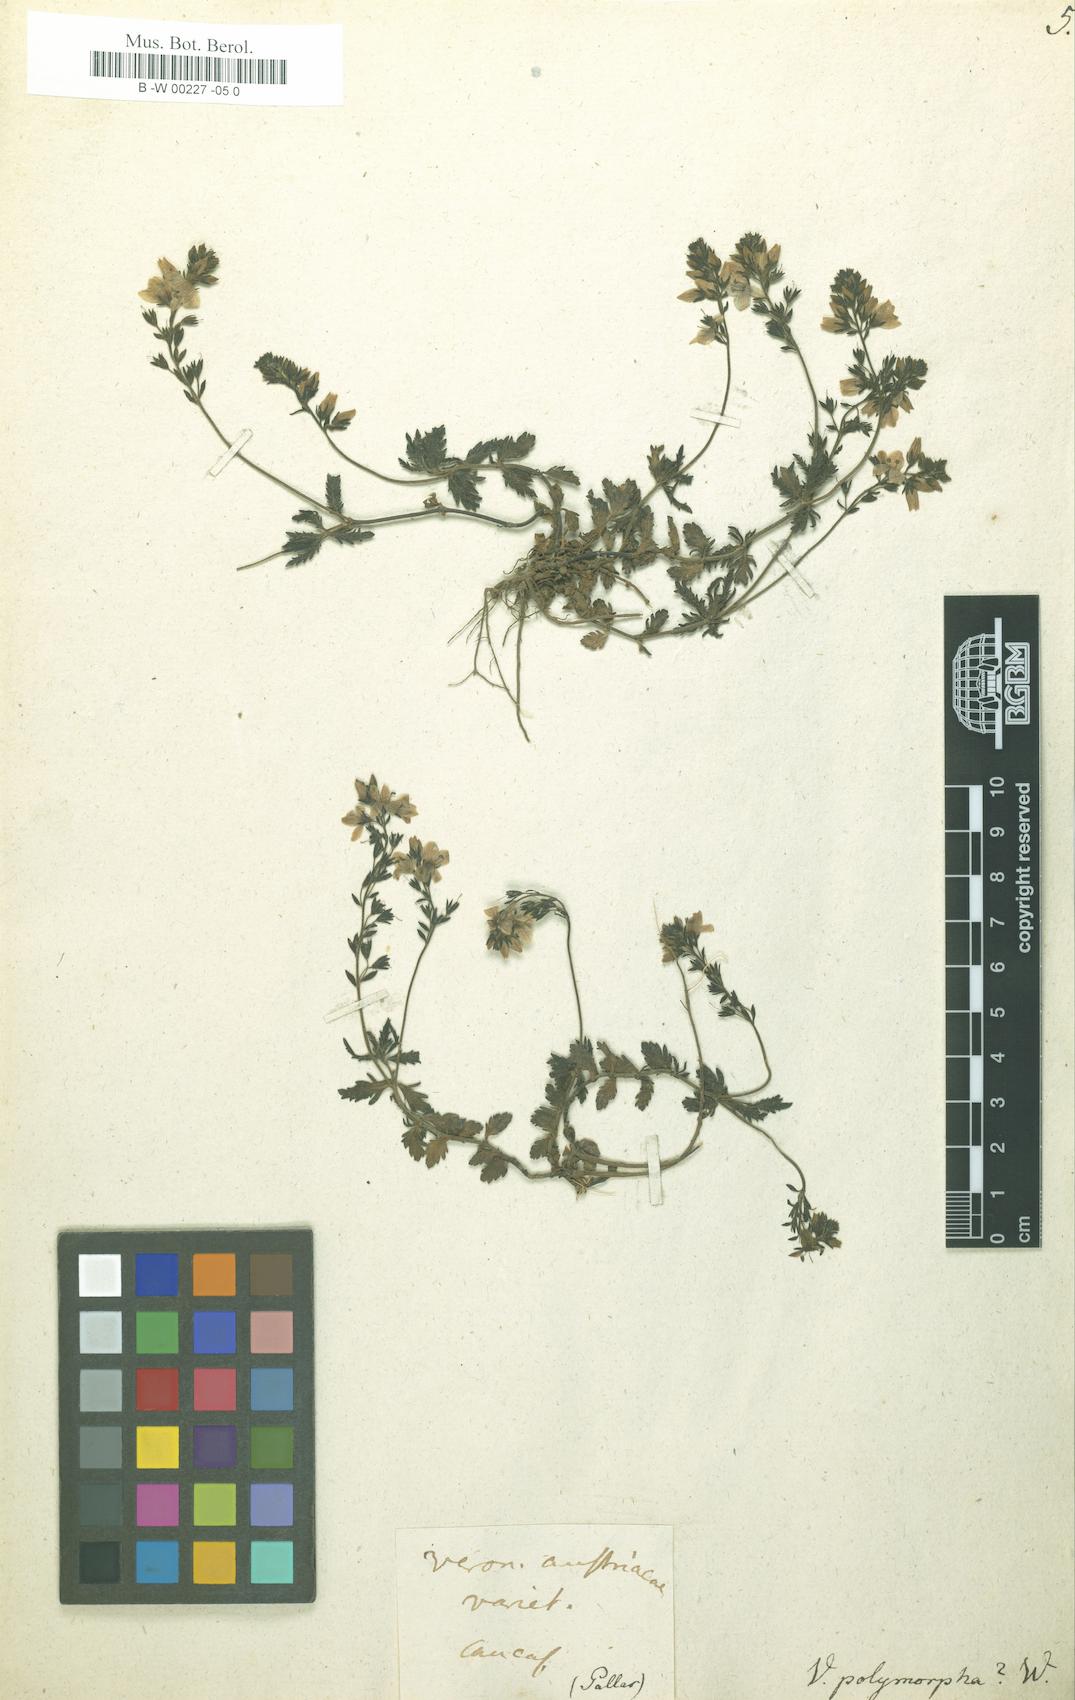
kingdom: Plantae
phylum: Tracheophyta
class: Magnoliopsida
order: Lamiales
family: Plantaginaceae
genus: Veronica
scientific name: Veronica austriaca
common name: Large speedwell
